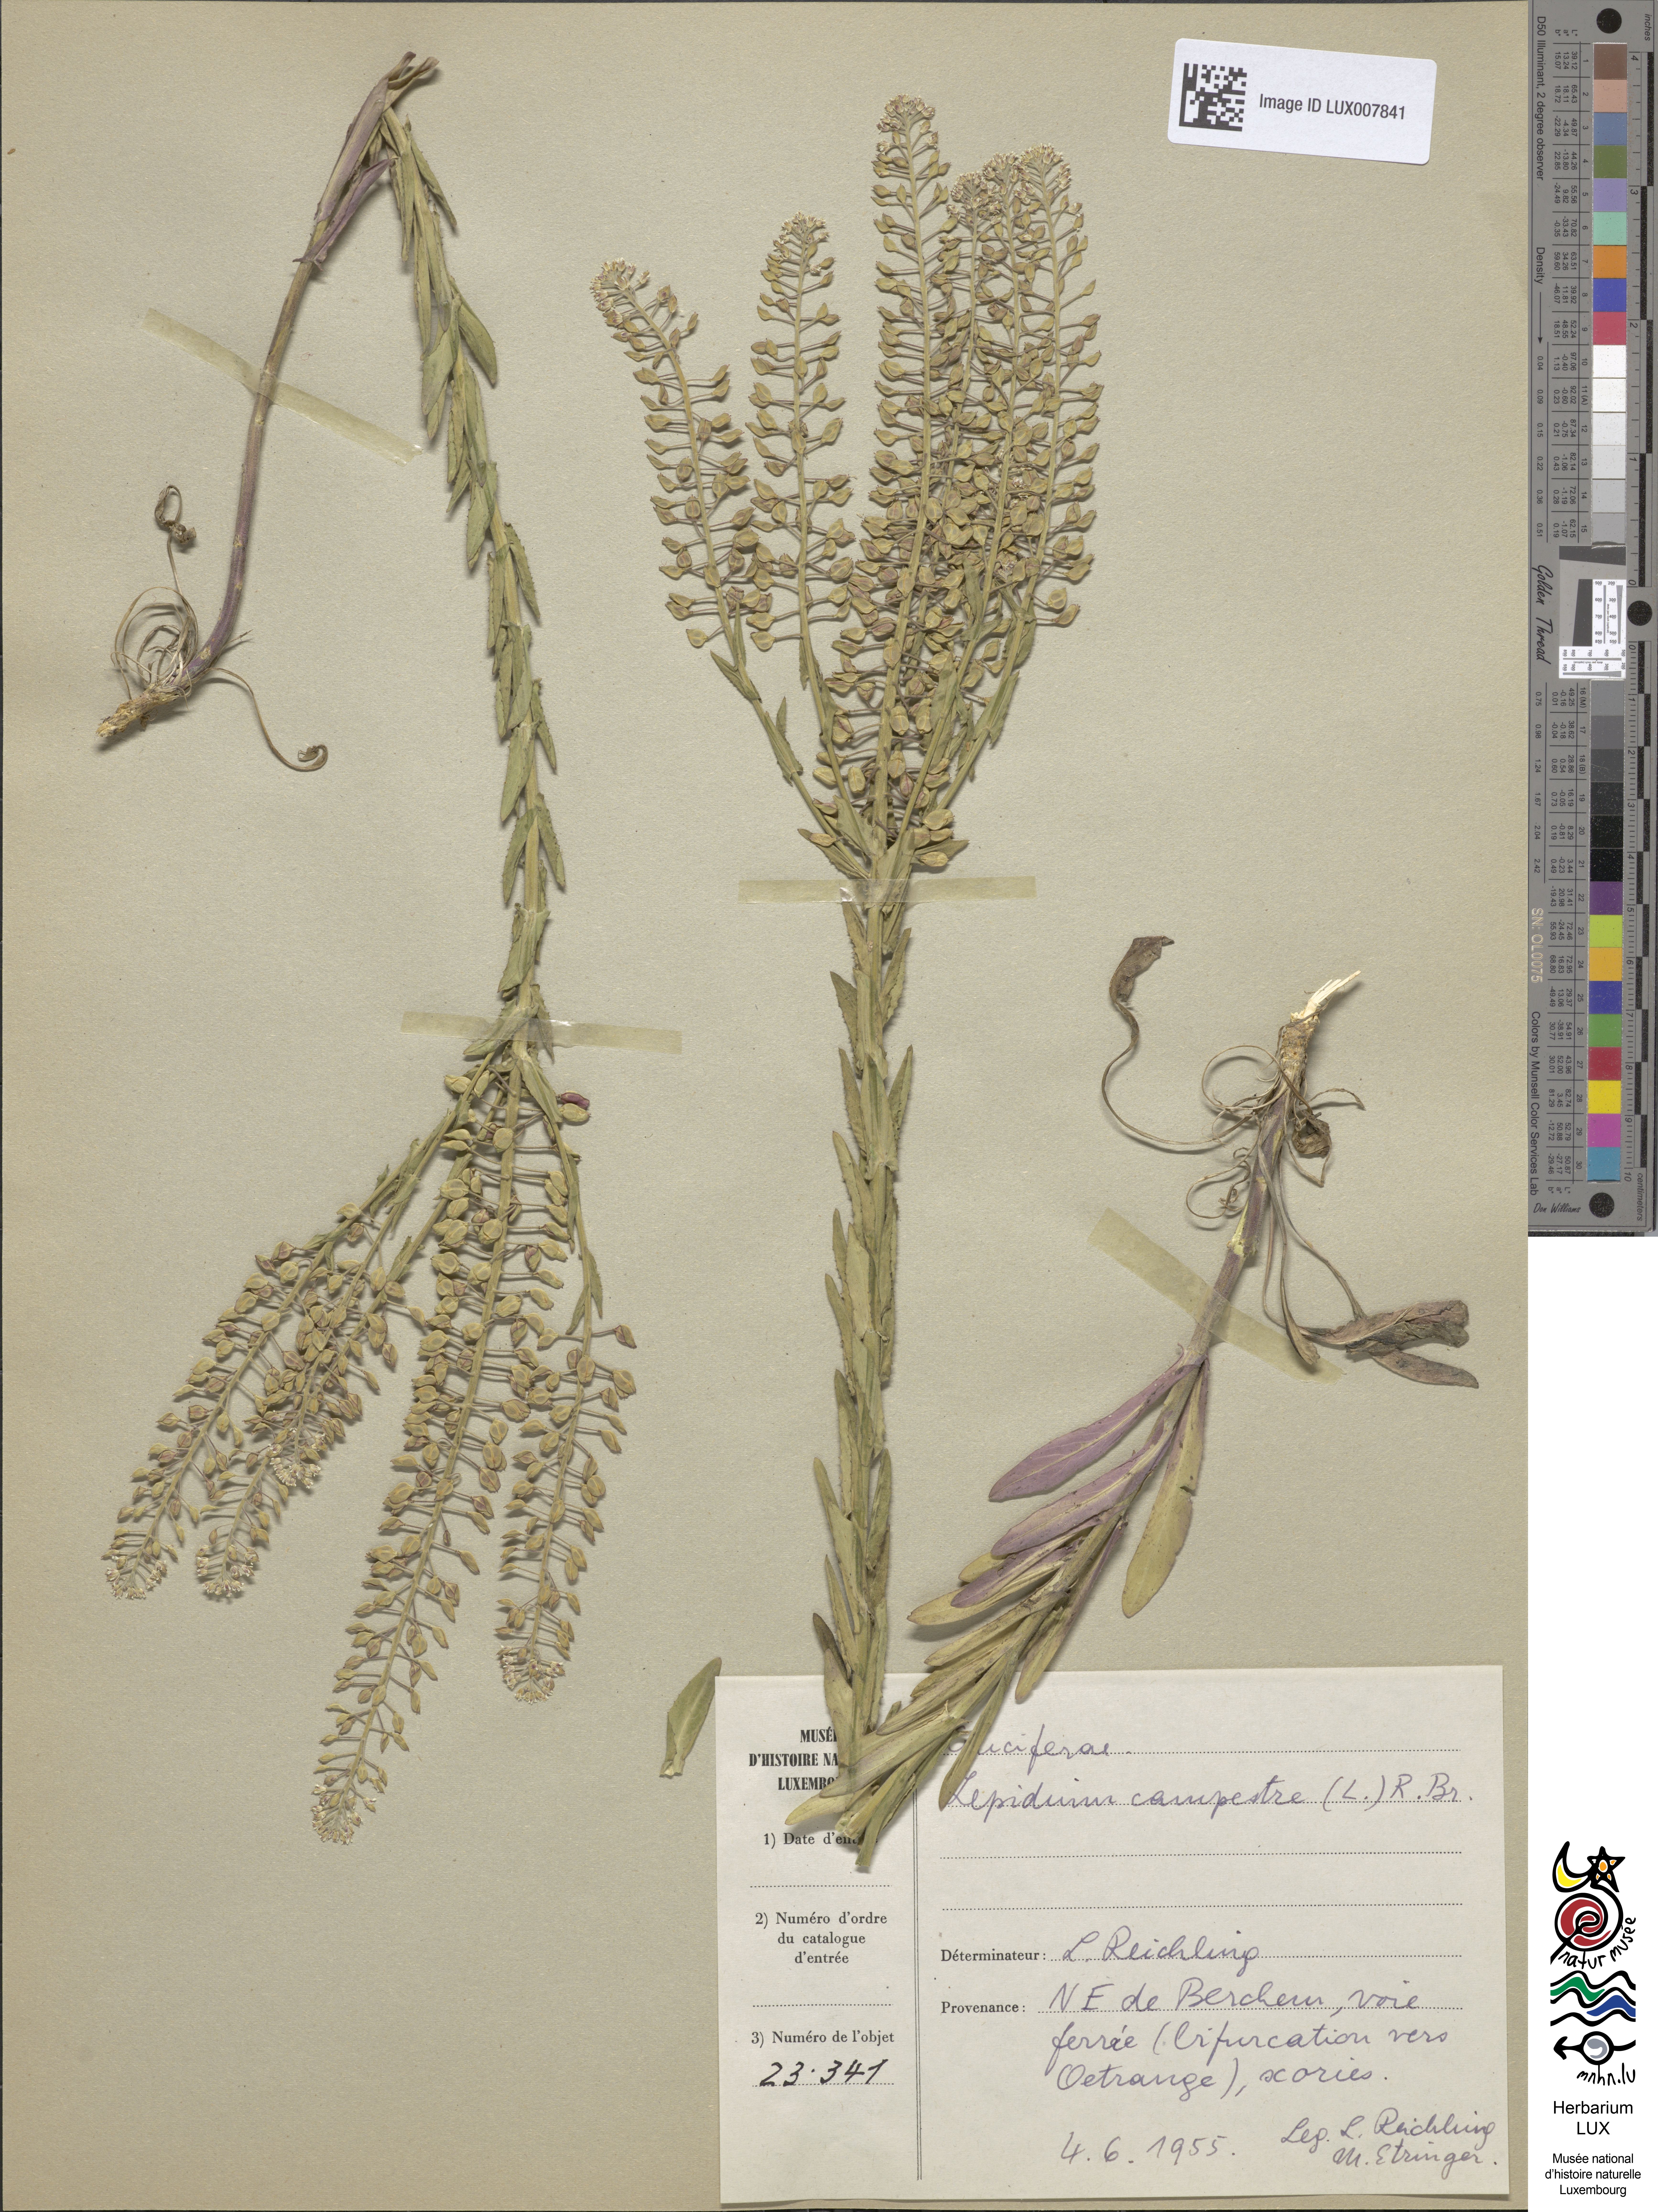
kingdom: Plantae
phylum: Tracheophyta
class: Magnoliopsida
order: Brassicales
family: Brassicaceae
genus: Lepidium
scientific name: Lepidium campestre
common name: Field pepperwort
